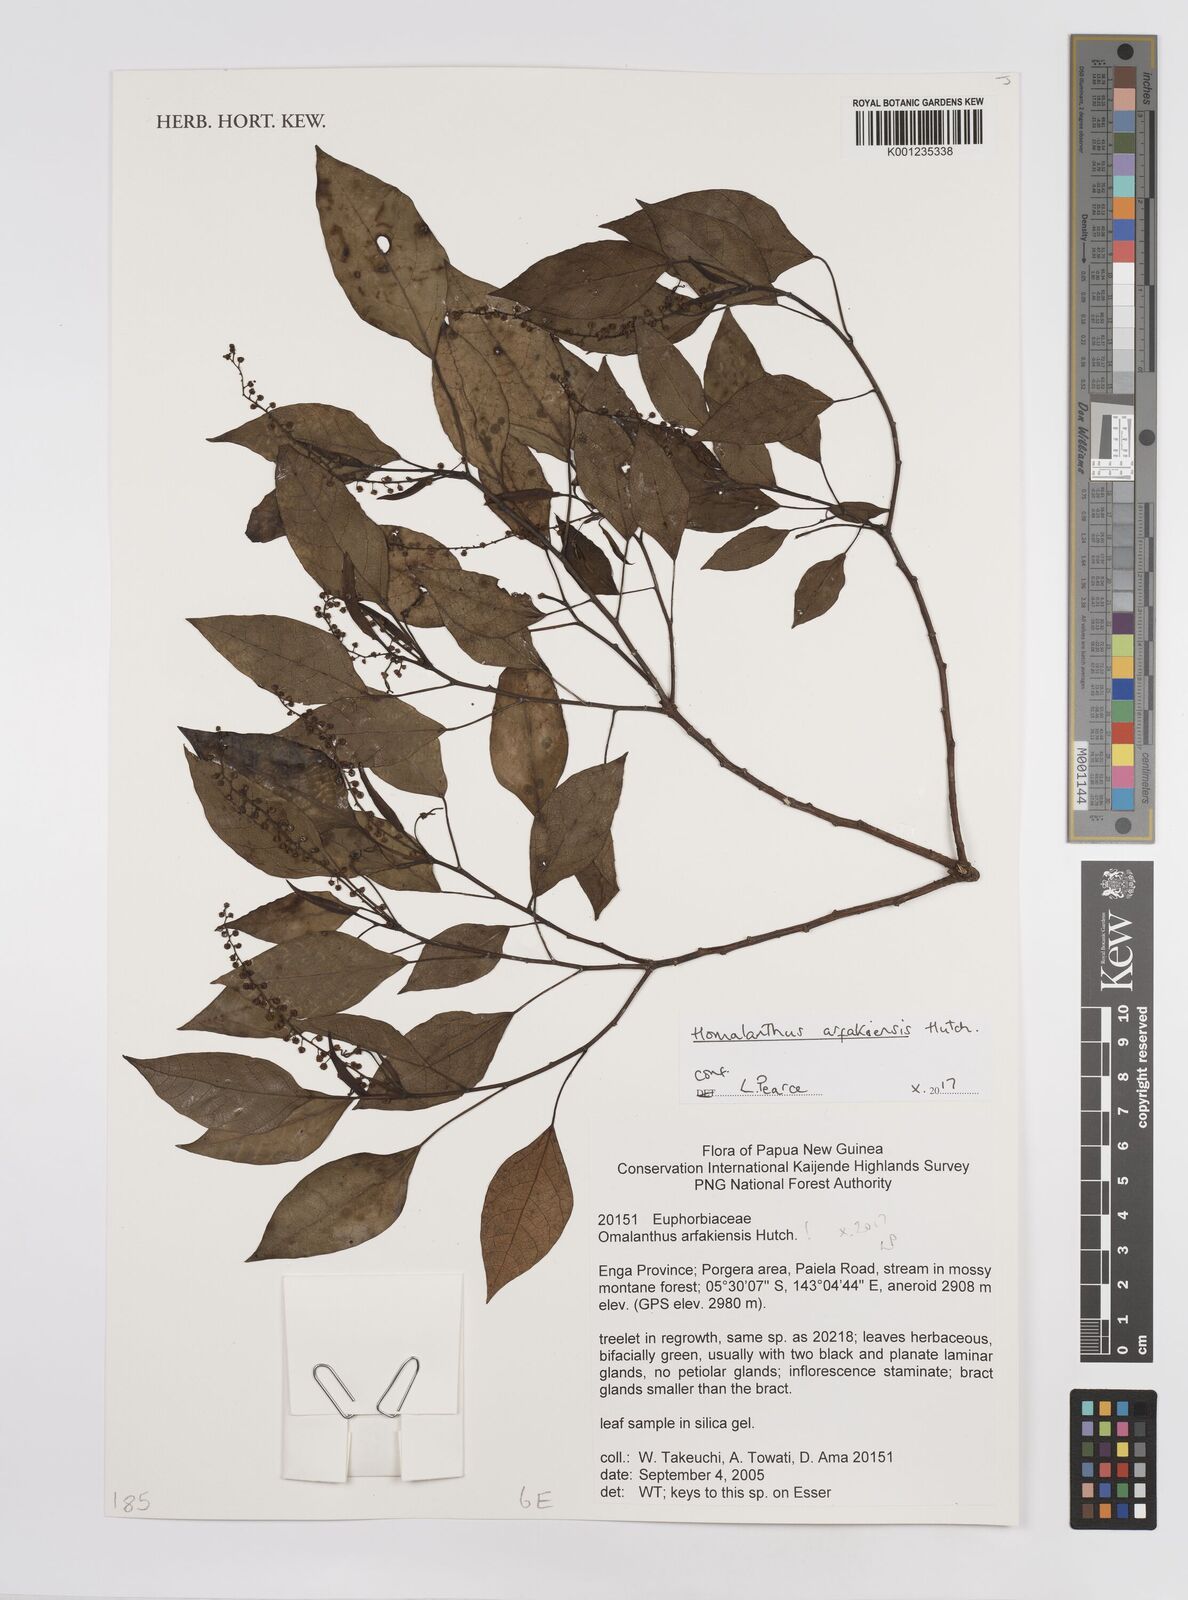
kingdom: Plantae
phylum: Tracheophyta
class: Magnoliopsida
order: Malpighiales
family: Euphorbiaceae
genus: Homalanthus
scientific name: Homalanthus arfakiensis
